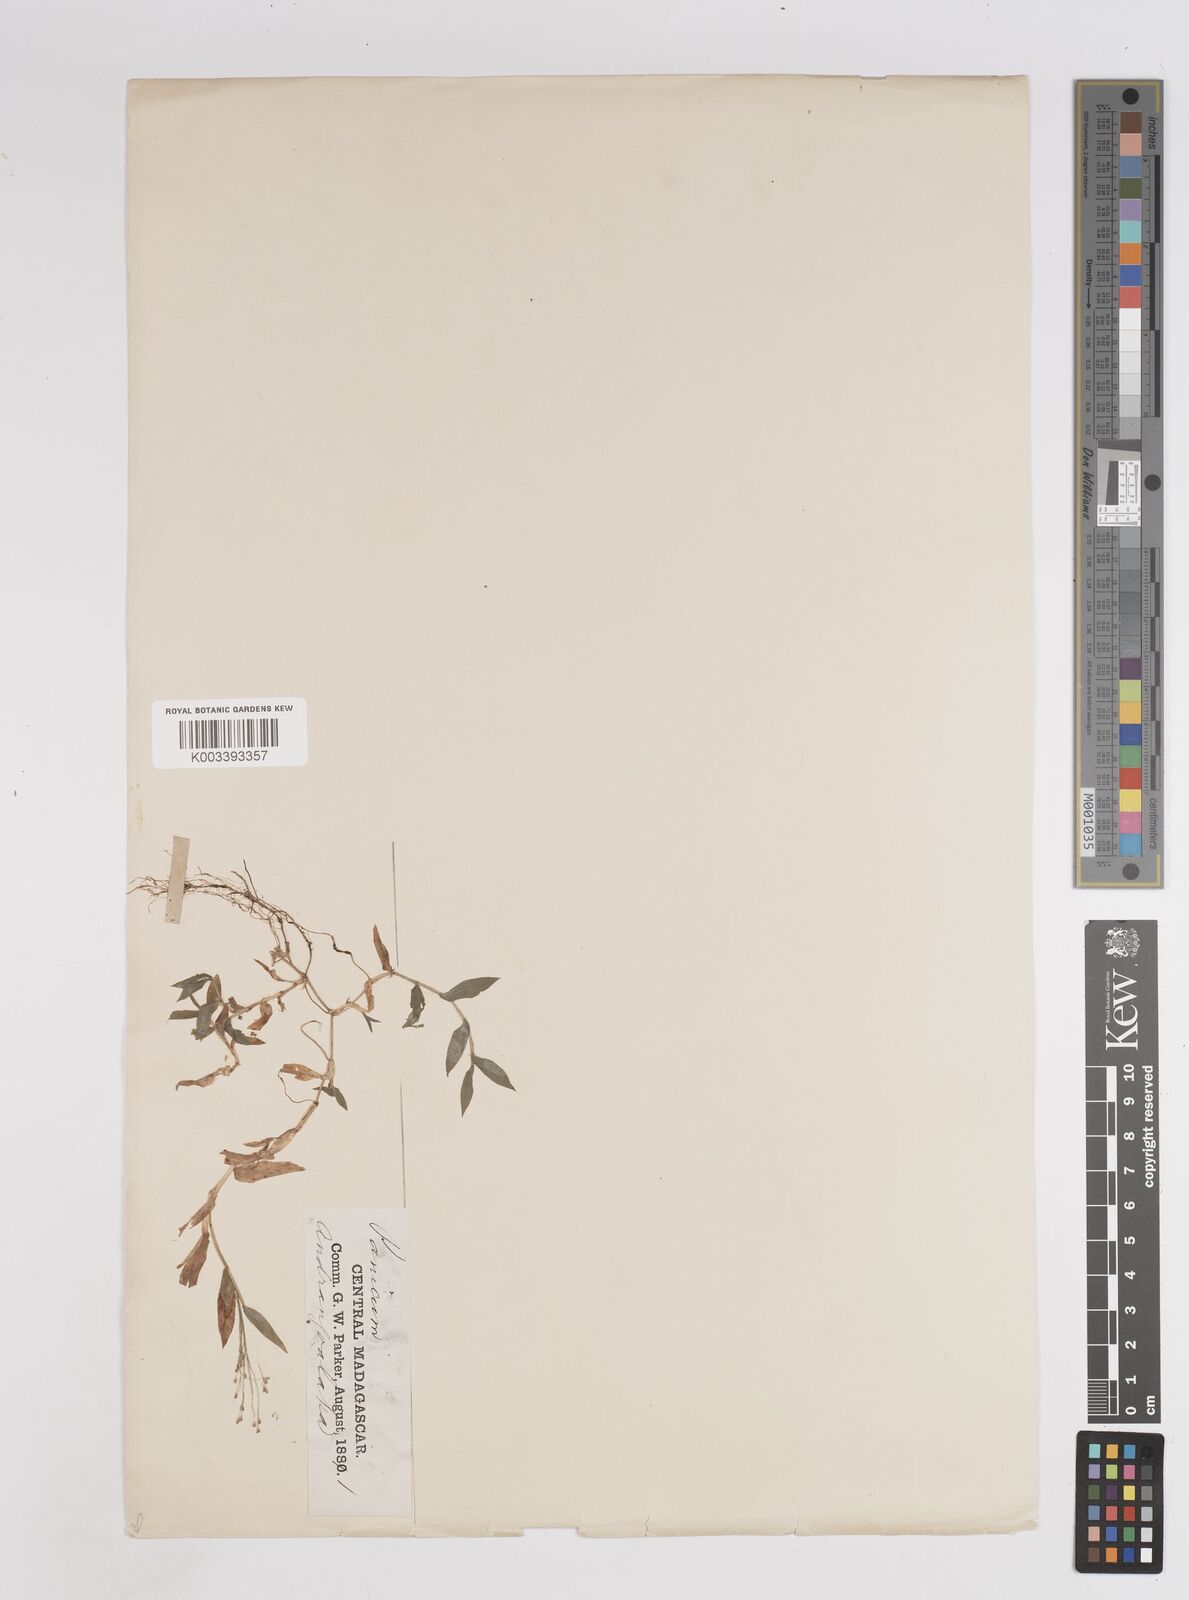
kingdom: Plantae
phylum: Tracheophyta
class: Liliopsida
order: Poales
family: Poaceae
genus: Panicum
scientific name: Panicum
